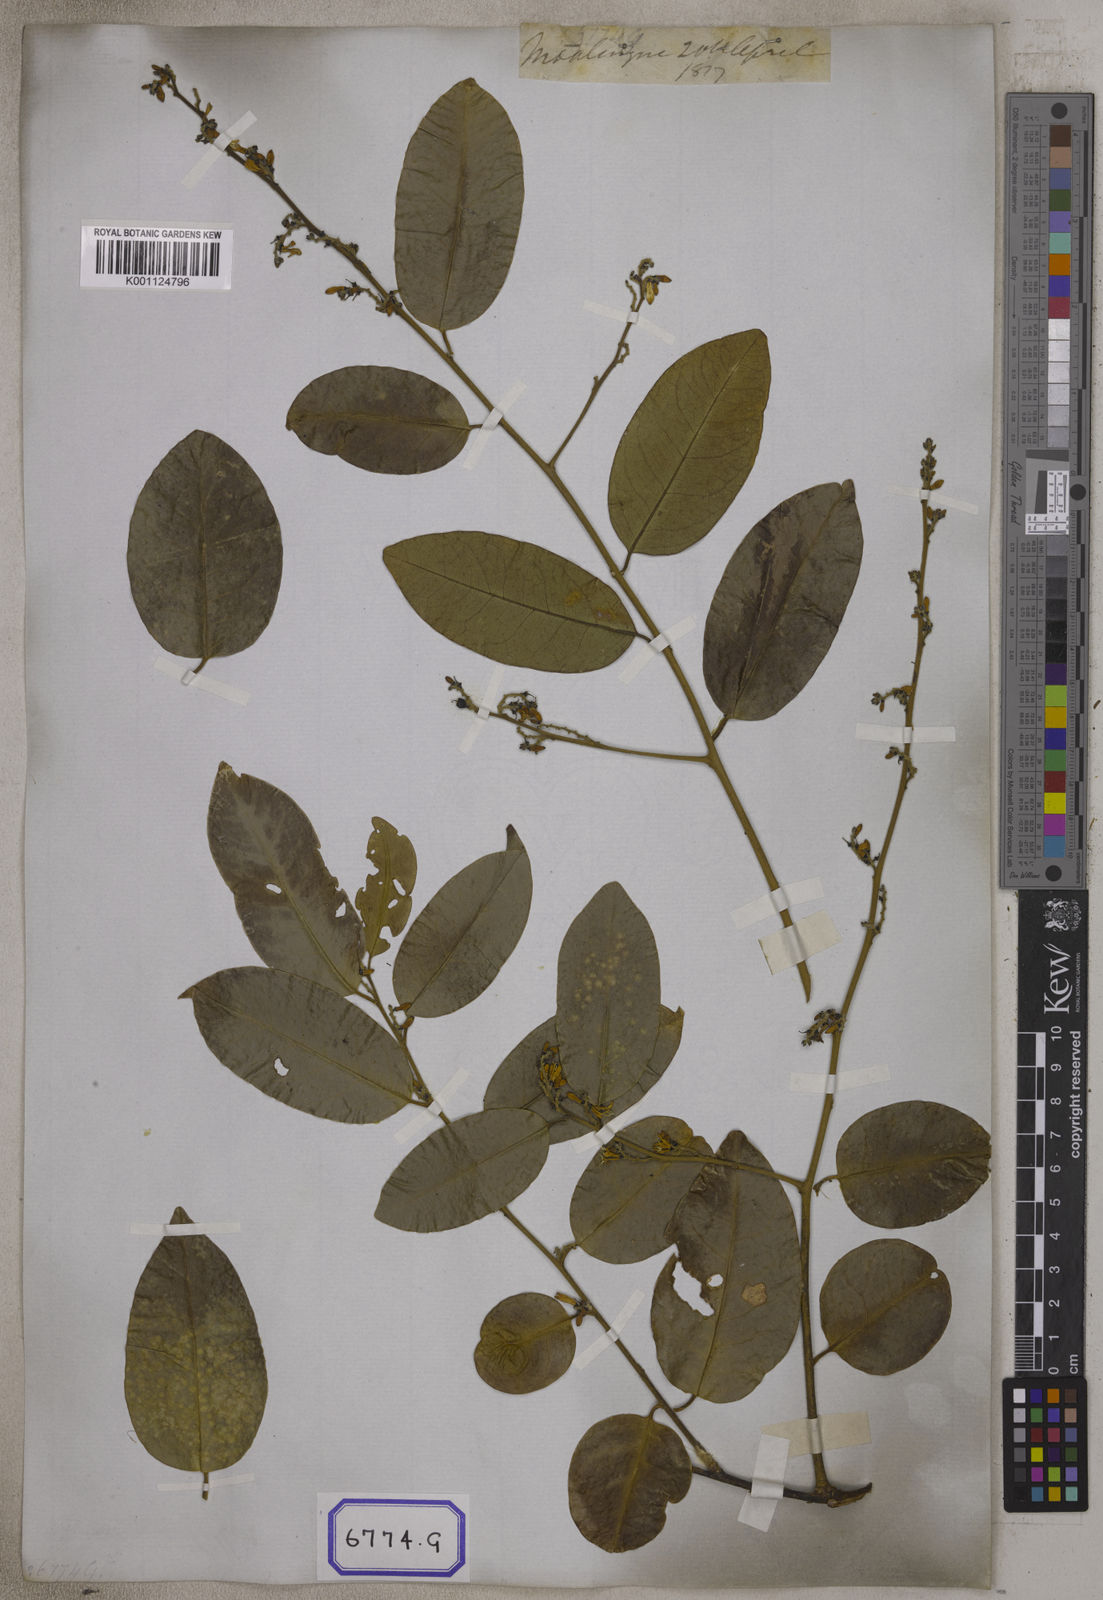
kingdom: Plantae
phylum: Tracheophyta
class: Magnoliopsida
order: Santalales
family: Olacaceae
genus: Olax
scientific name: Olax psittacorum
